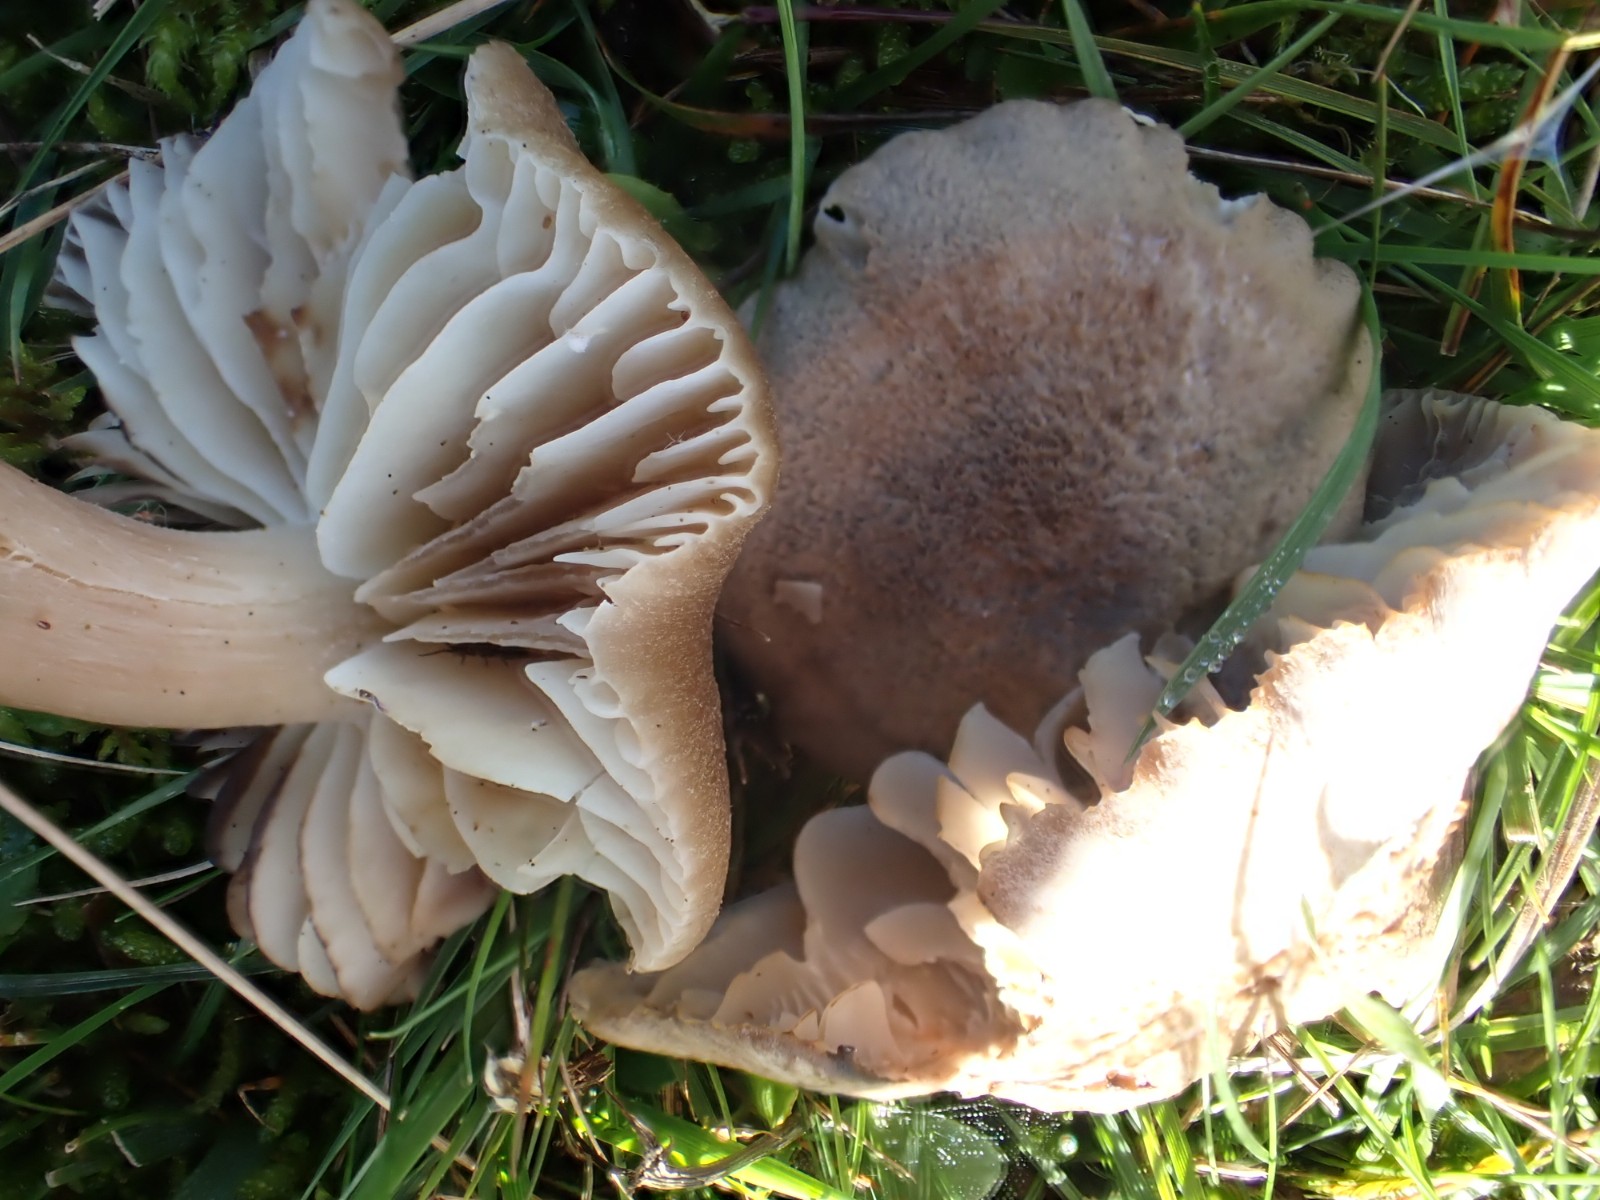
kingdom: Fungi
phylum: Basidiomycota
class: Agaricomycetes
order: Agaricales
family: Hygrophoraceae
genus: Neohygrocybe
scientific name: Neohygrocybe nitrata
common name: stinkende vokshat
